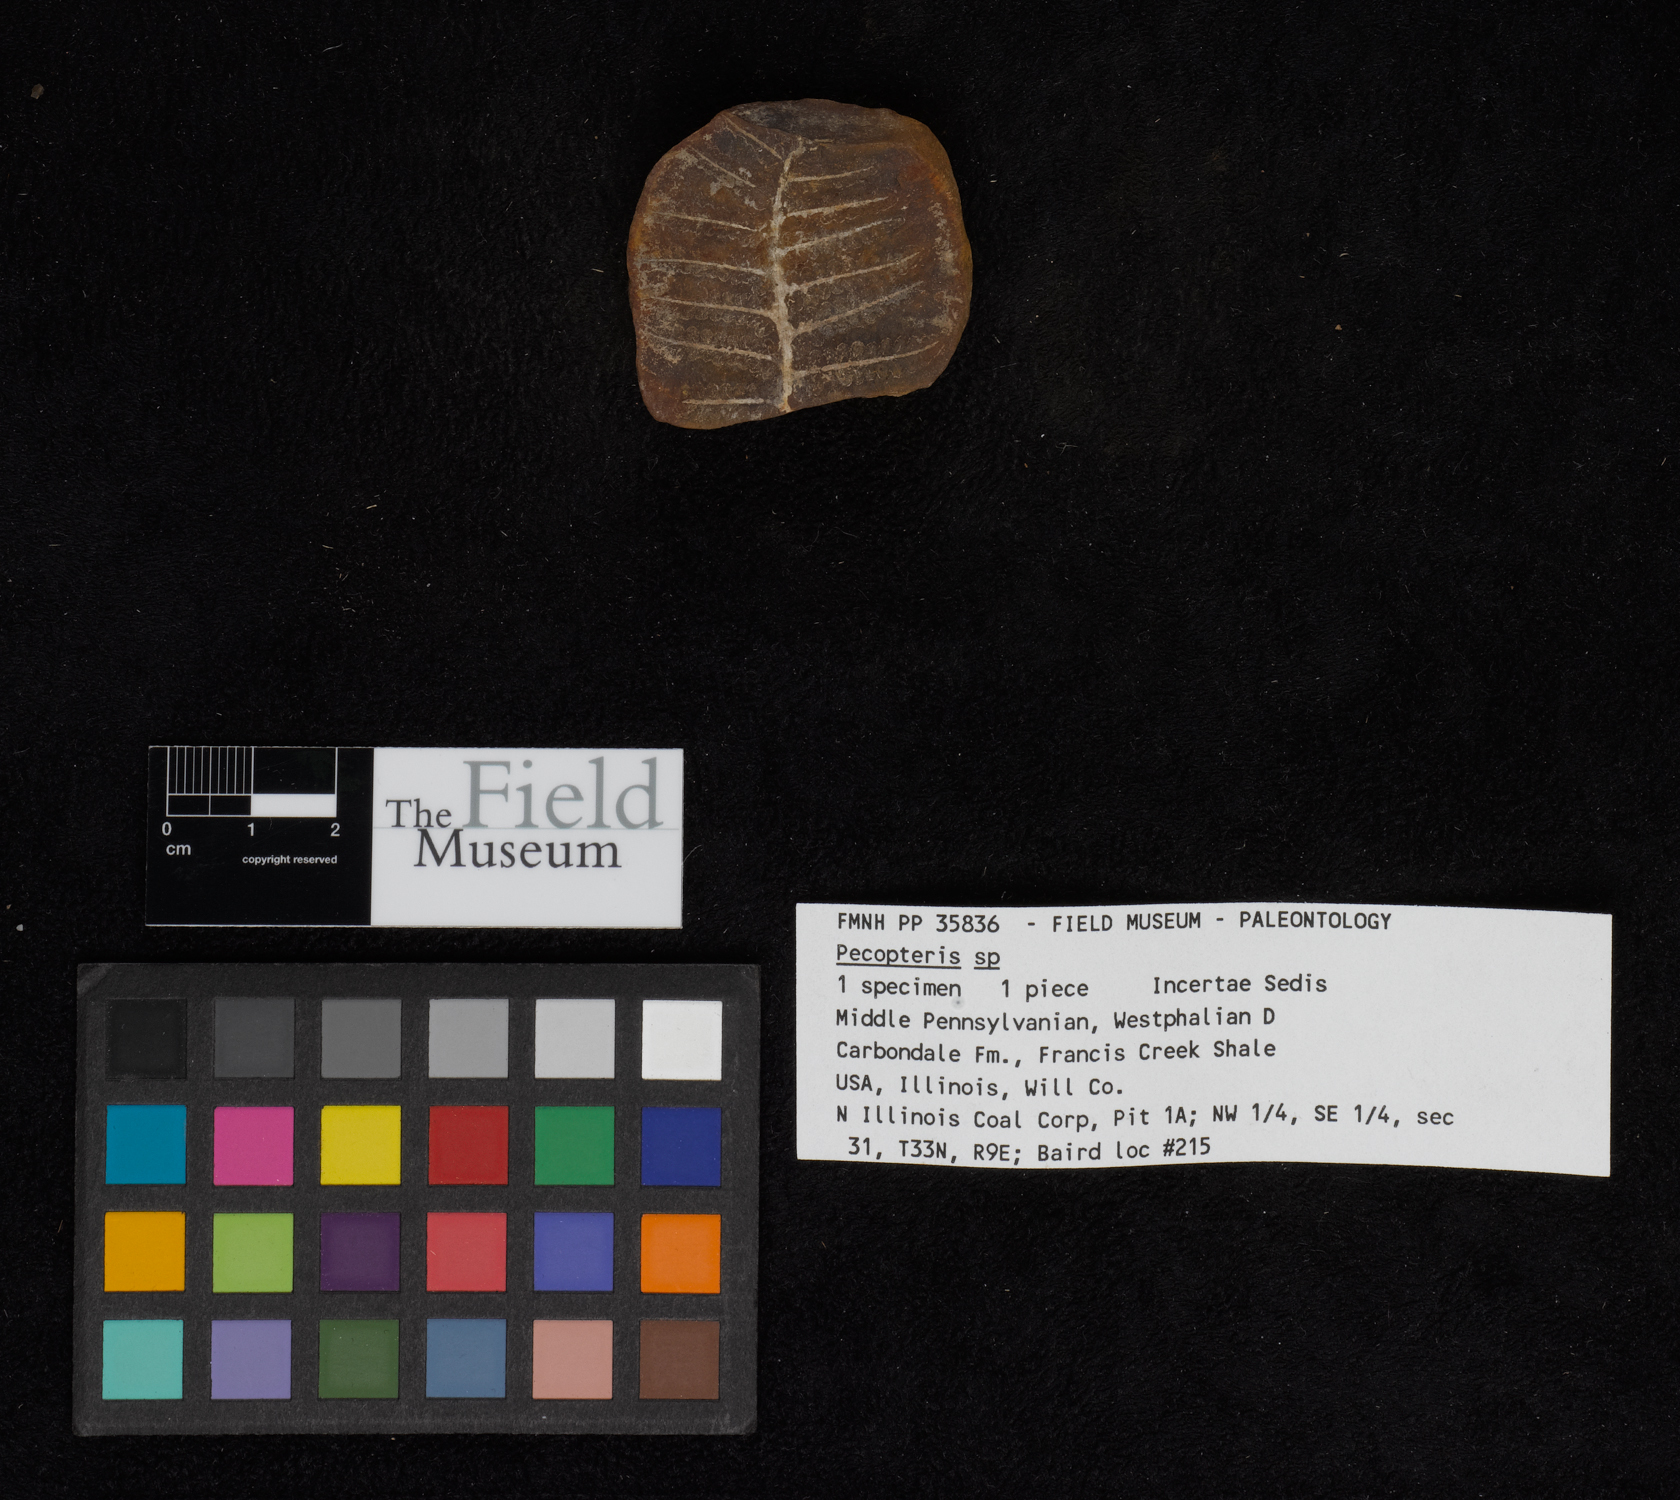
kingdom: Plantae
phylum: Tracheophyta
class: Polypodiopsida
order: Marattiales
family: Asterothecaceae
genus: Pecopteris
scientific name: Pecopteris
